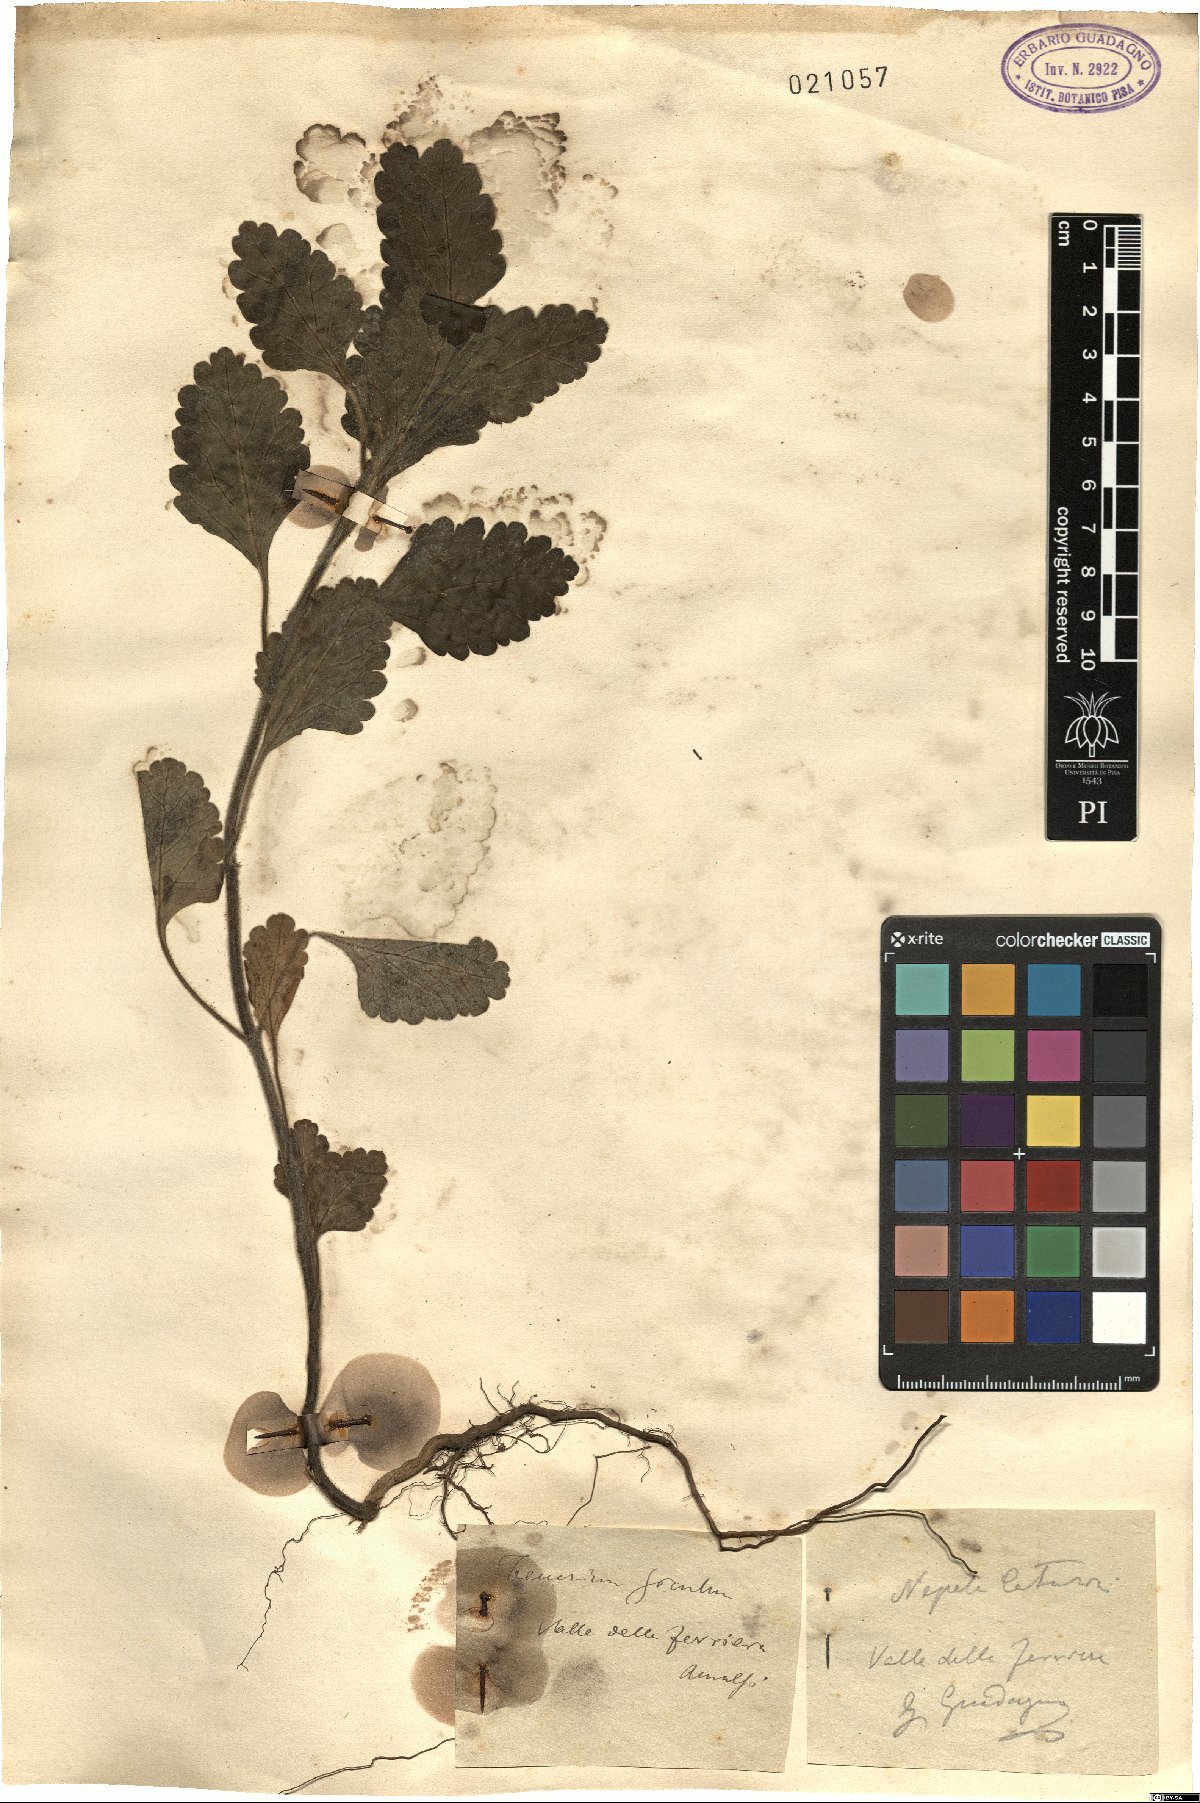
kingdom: Plantae
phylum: Tracheophyta
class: Magnoliopsida
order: Lamiales
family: Lamiaceae
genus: Teucrium
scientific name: Teucrium siculum
